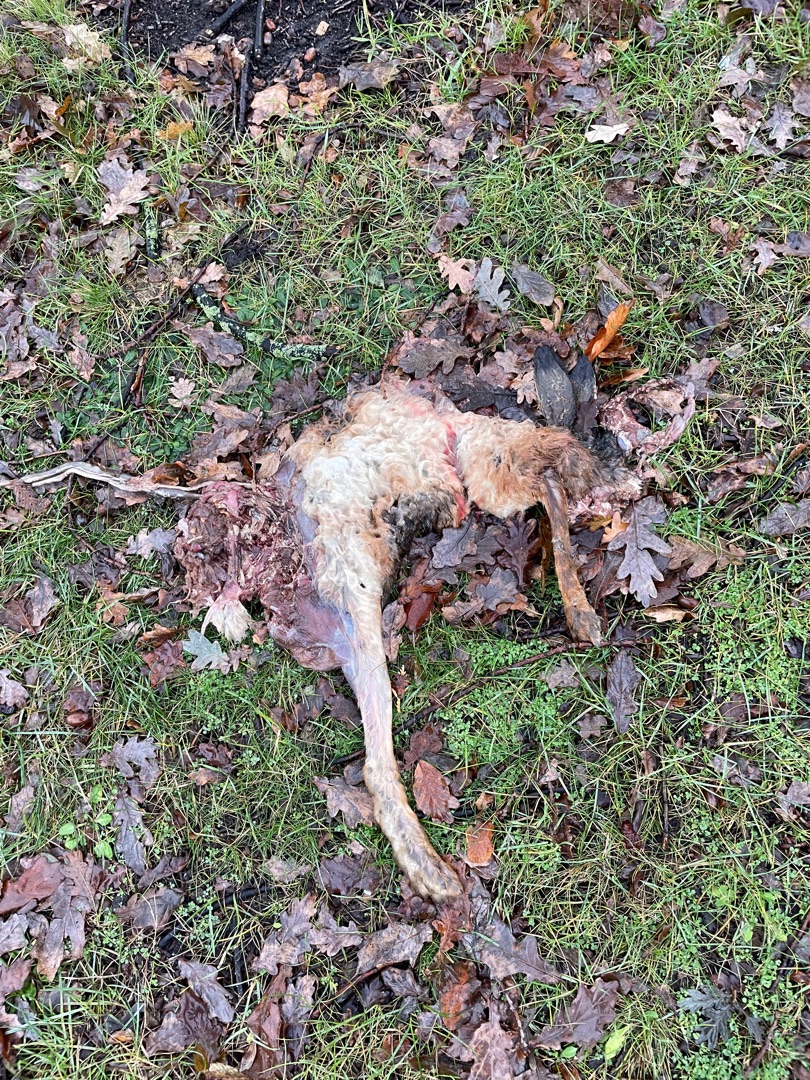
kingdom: Animalia
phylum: Chordata
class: Mammalia
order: Lagomorpha
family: Leporidae
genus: Lepus
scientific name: Lepus europaeus
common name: Hare
